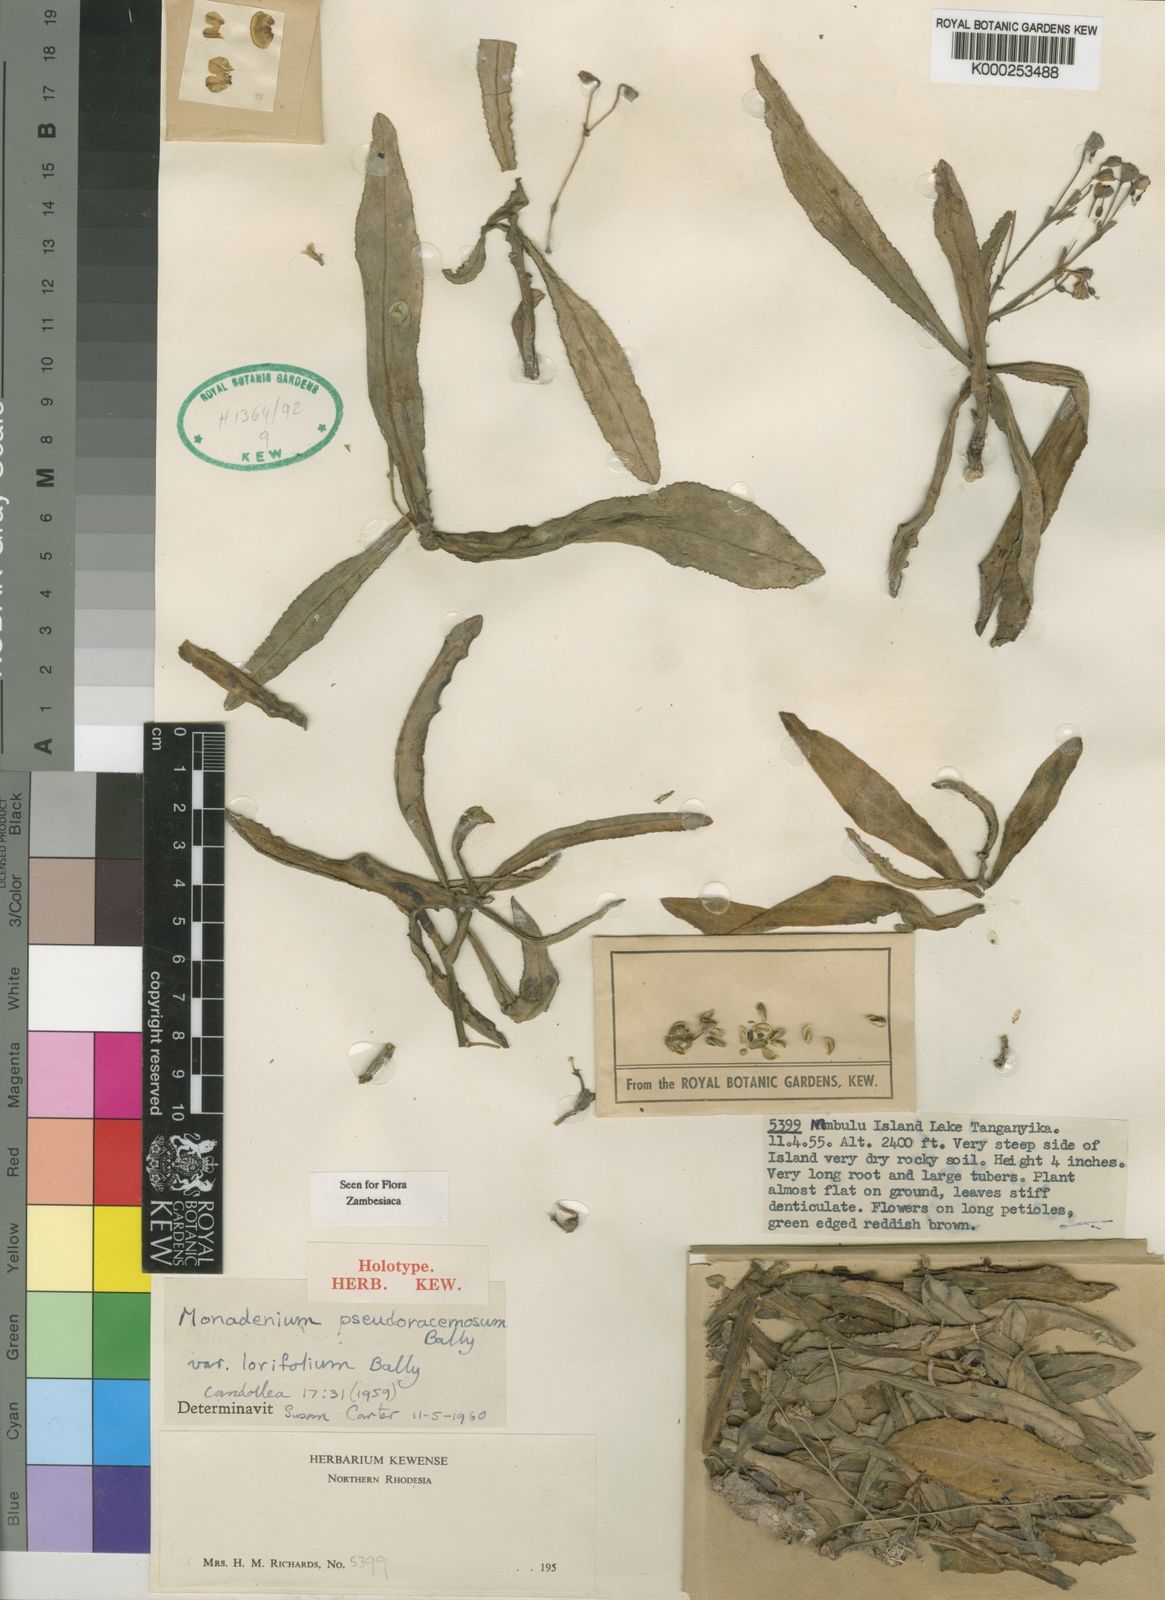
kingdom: Plantae
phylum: Tracheophyta
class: Magnoliopsida
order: Malpighiales
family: Euphorbiaceae
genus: Euphorbia
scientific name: Euphorbia pseudoracemosa
